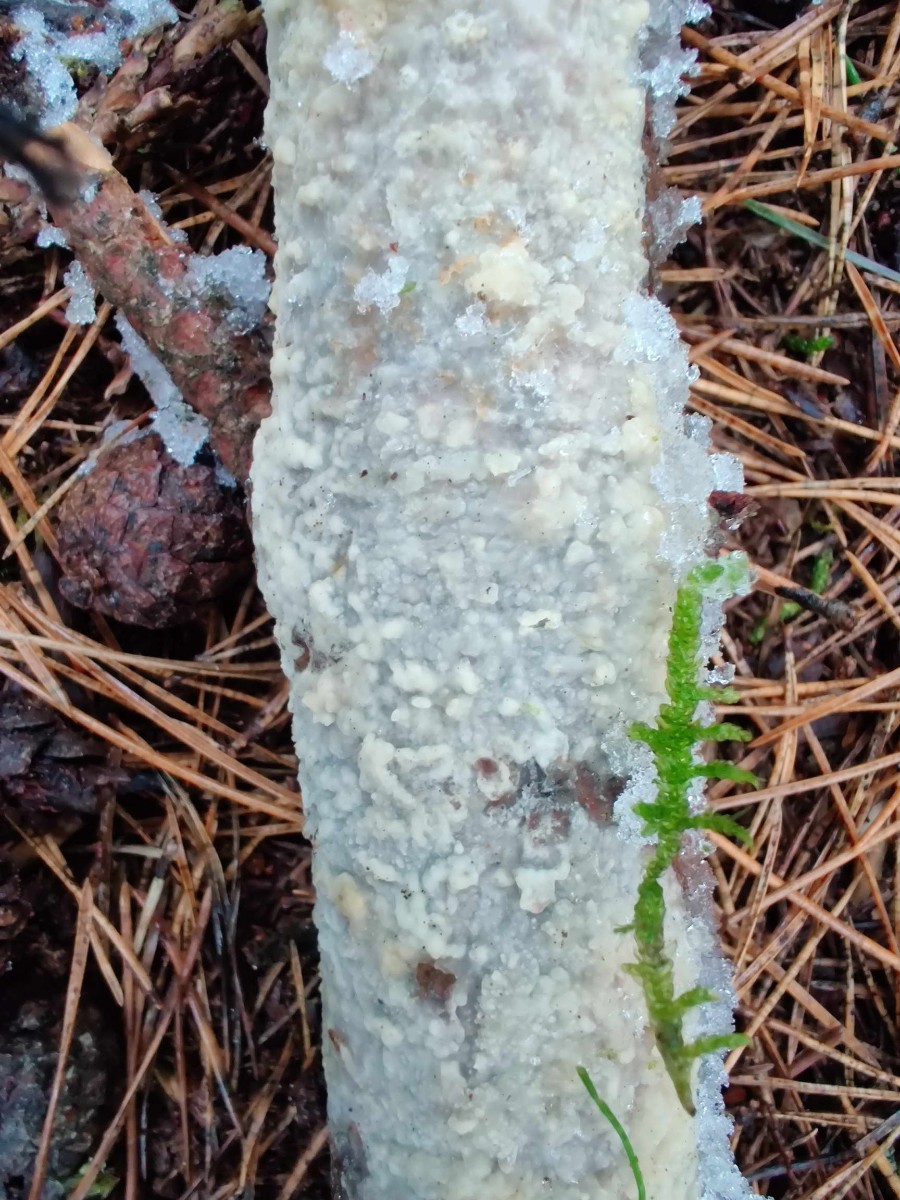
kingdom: Fungi
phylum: Basidiomycota
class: Agaricomycetes
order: Polyporales
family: Phanerochaetaceae
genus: Phlebiopsis
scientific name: Phlebiopsis gigantea
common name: kæmpebarksvamp
